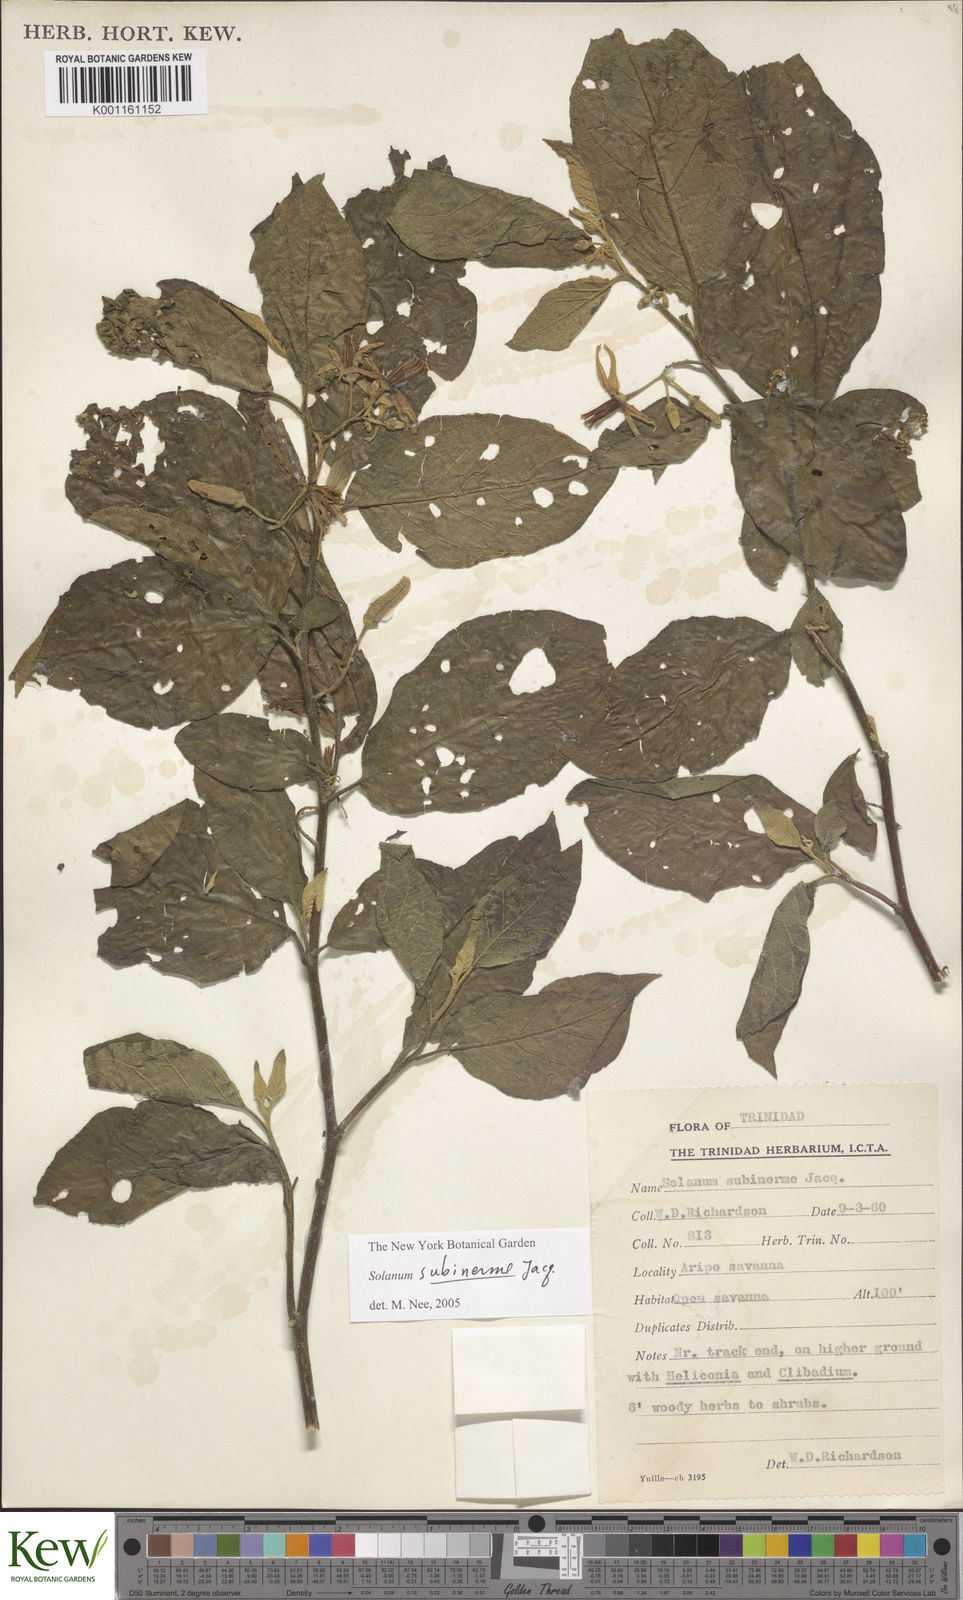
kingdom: Plantae
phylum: Tracheophyta
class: Magnoliopsida
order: Solanales
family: Solanaceae
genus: Solanum
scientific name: Solanum subinerme
